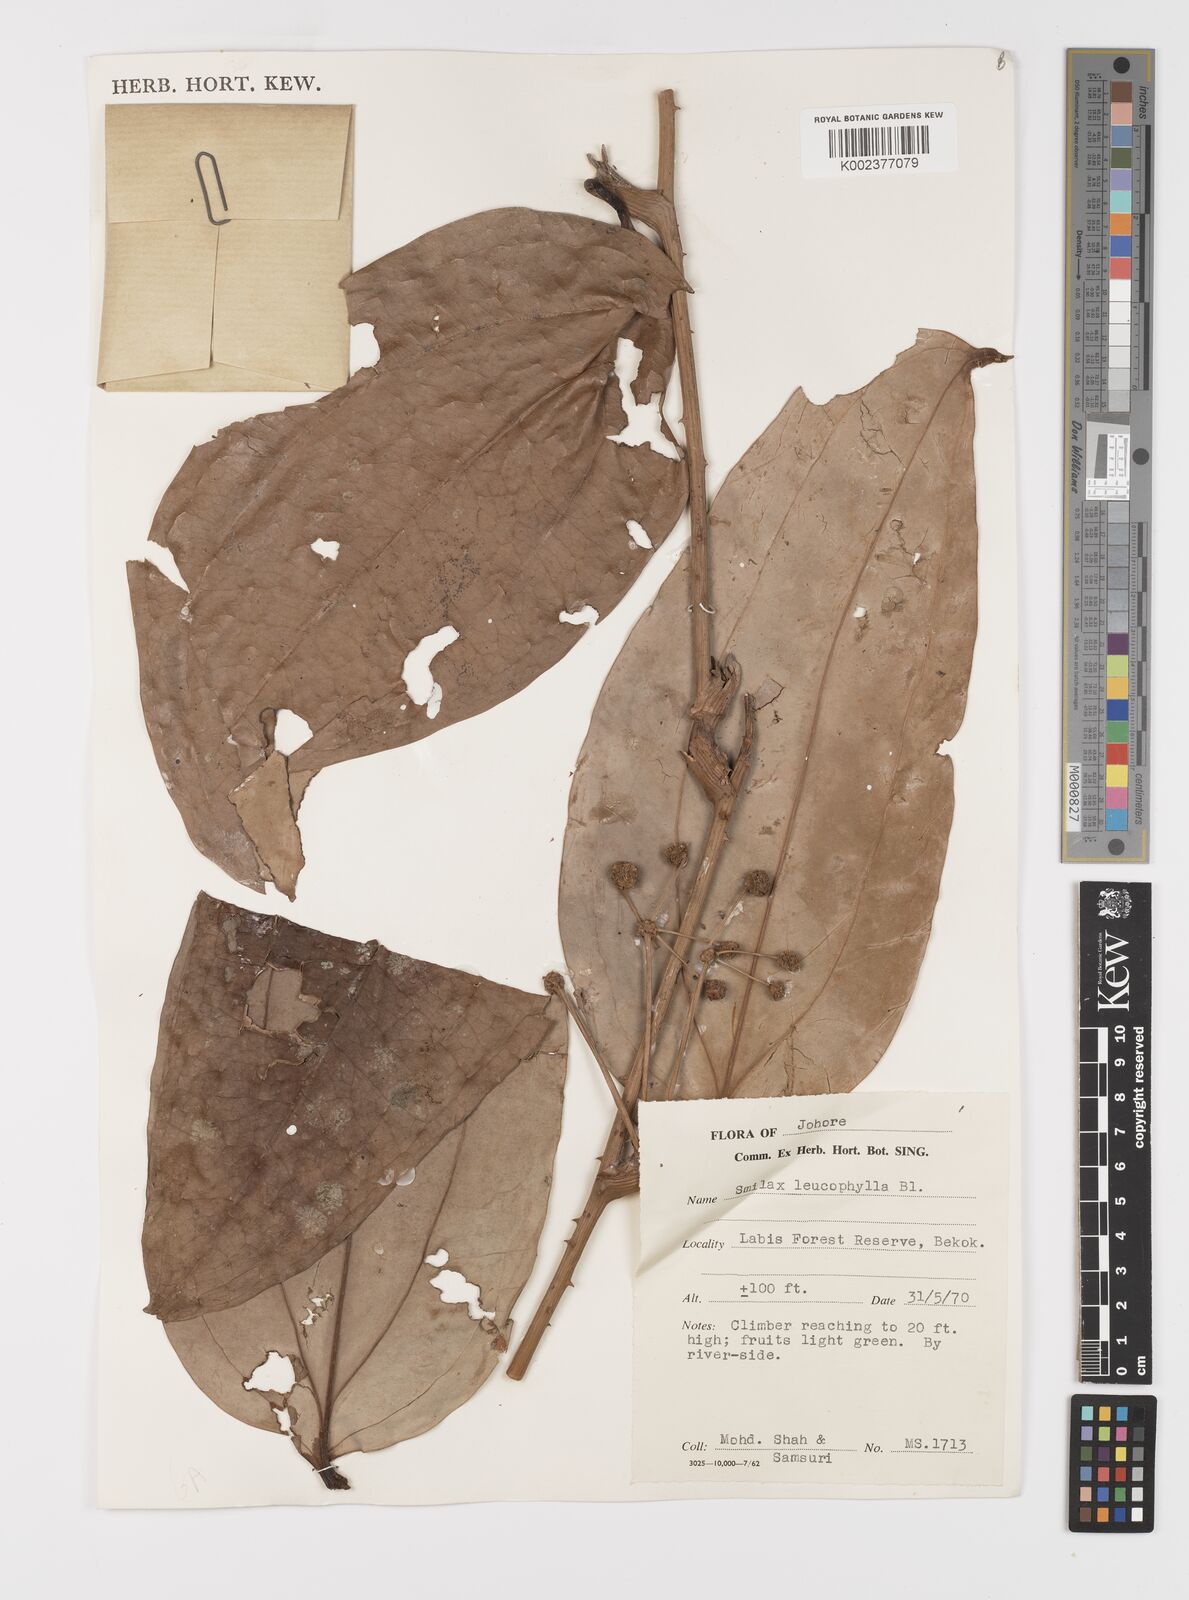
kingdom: Plantae
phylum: Tracheophyta
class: Liliopsida
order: Liliales
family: Smilacaceae
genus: Smilax
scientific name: Smilax leucophylla
